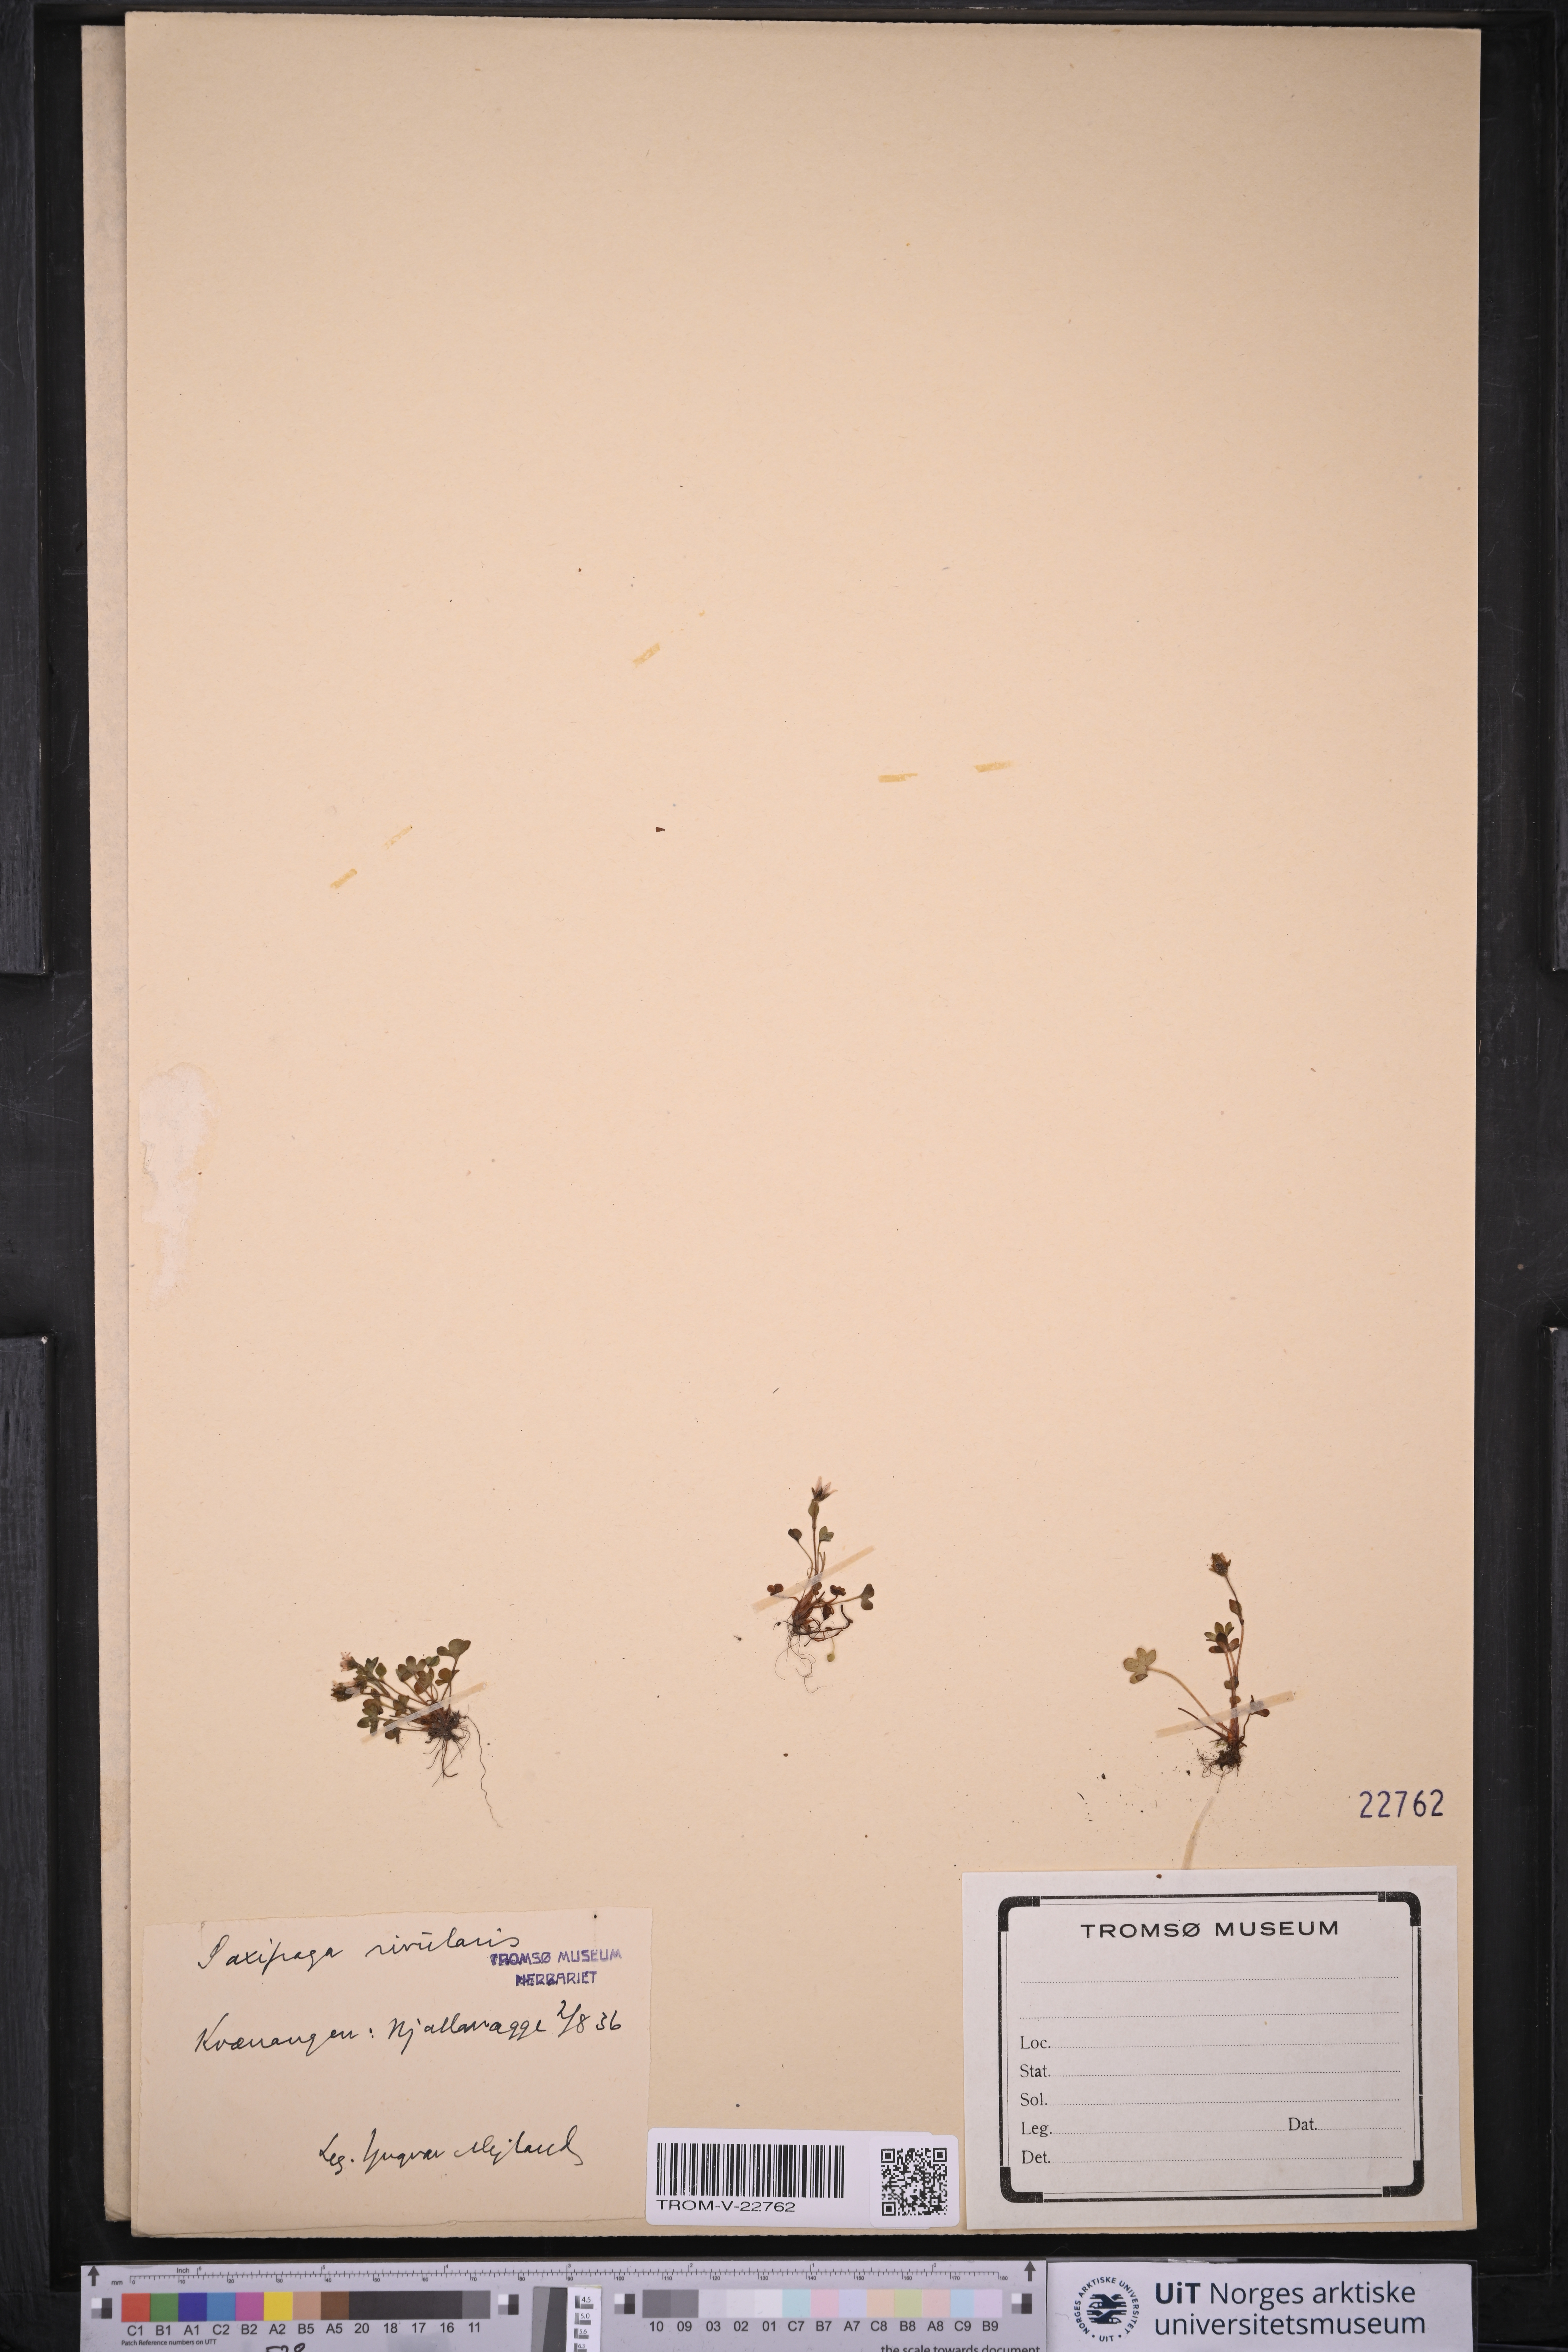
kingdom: Plantae
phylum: Tracheophyta
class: Magnoliopsida
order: Saxifragales
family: Saxifragaceae
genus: Saxifraga
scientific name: Saxifraga rivularis
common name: Highland saxifrage
